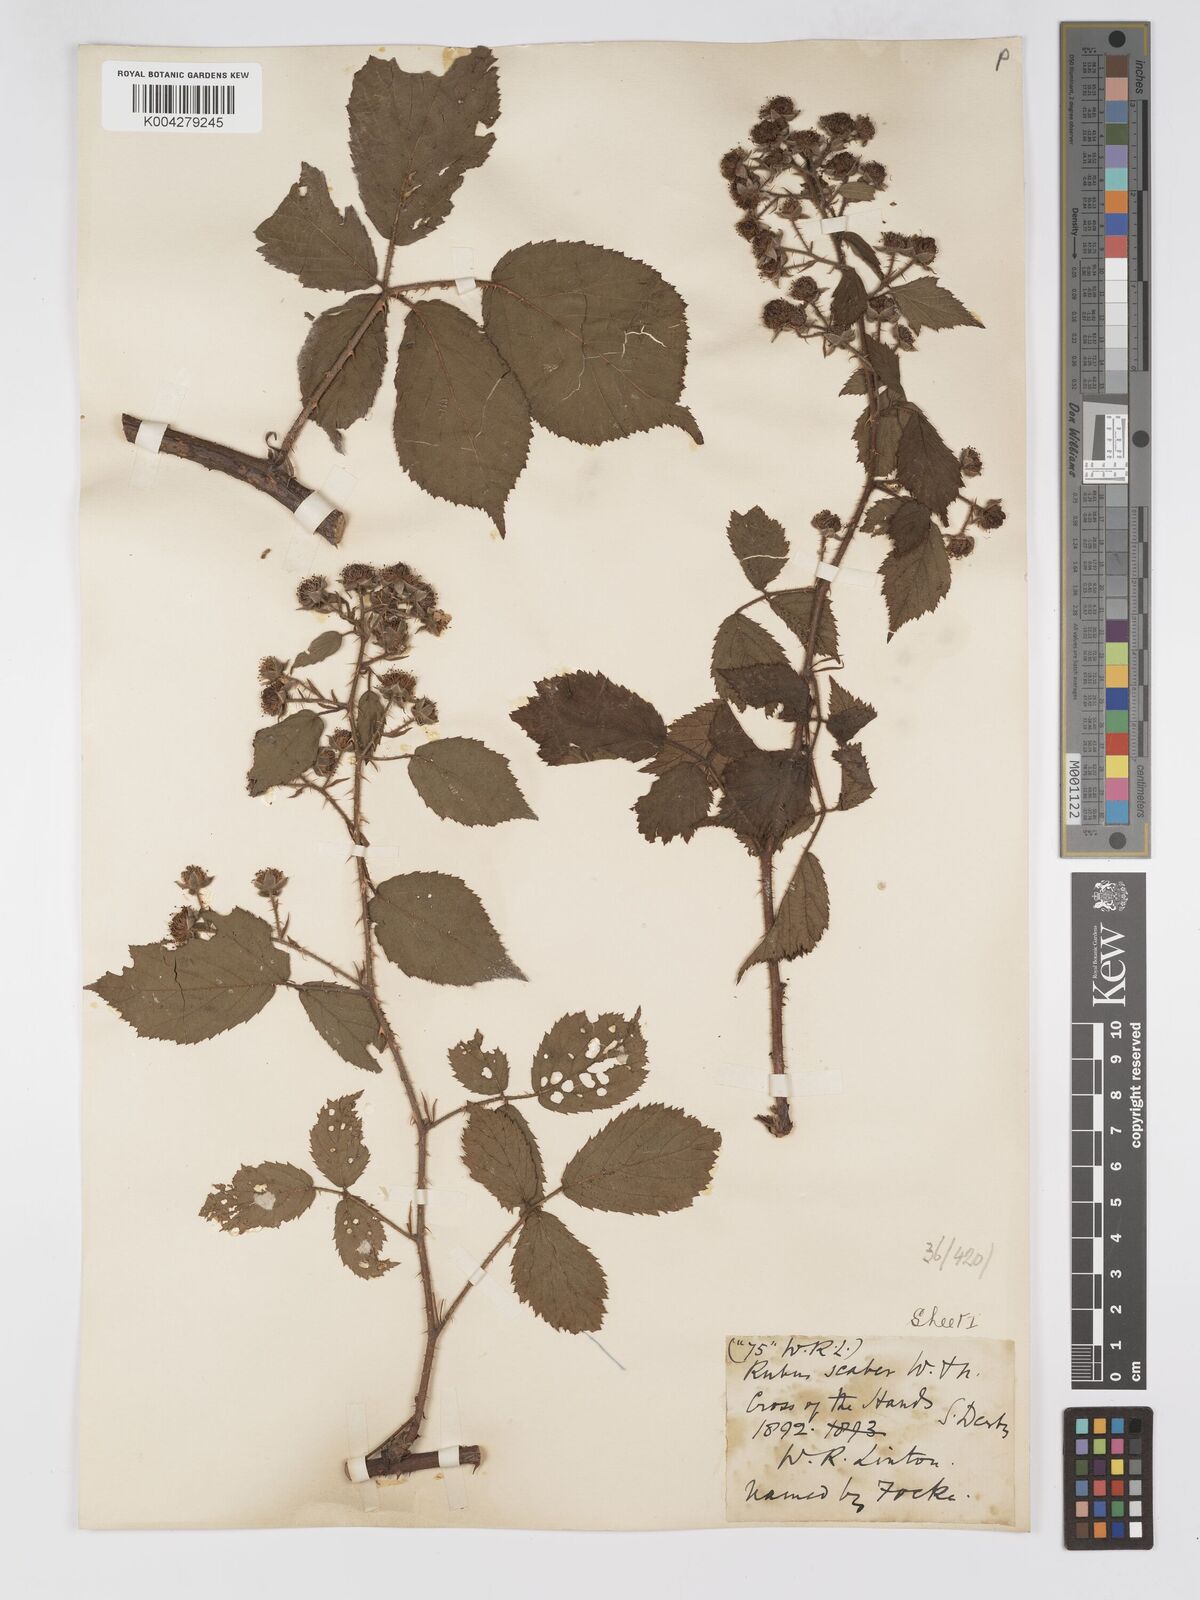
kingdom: Plantae
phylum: Tracheophyta
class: Magnoliopsida
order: Rosales
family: Rosaceae
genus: Rubus
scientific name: Rubus scaber
